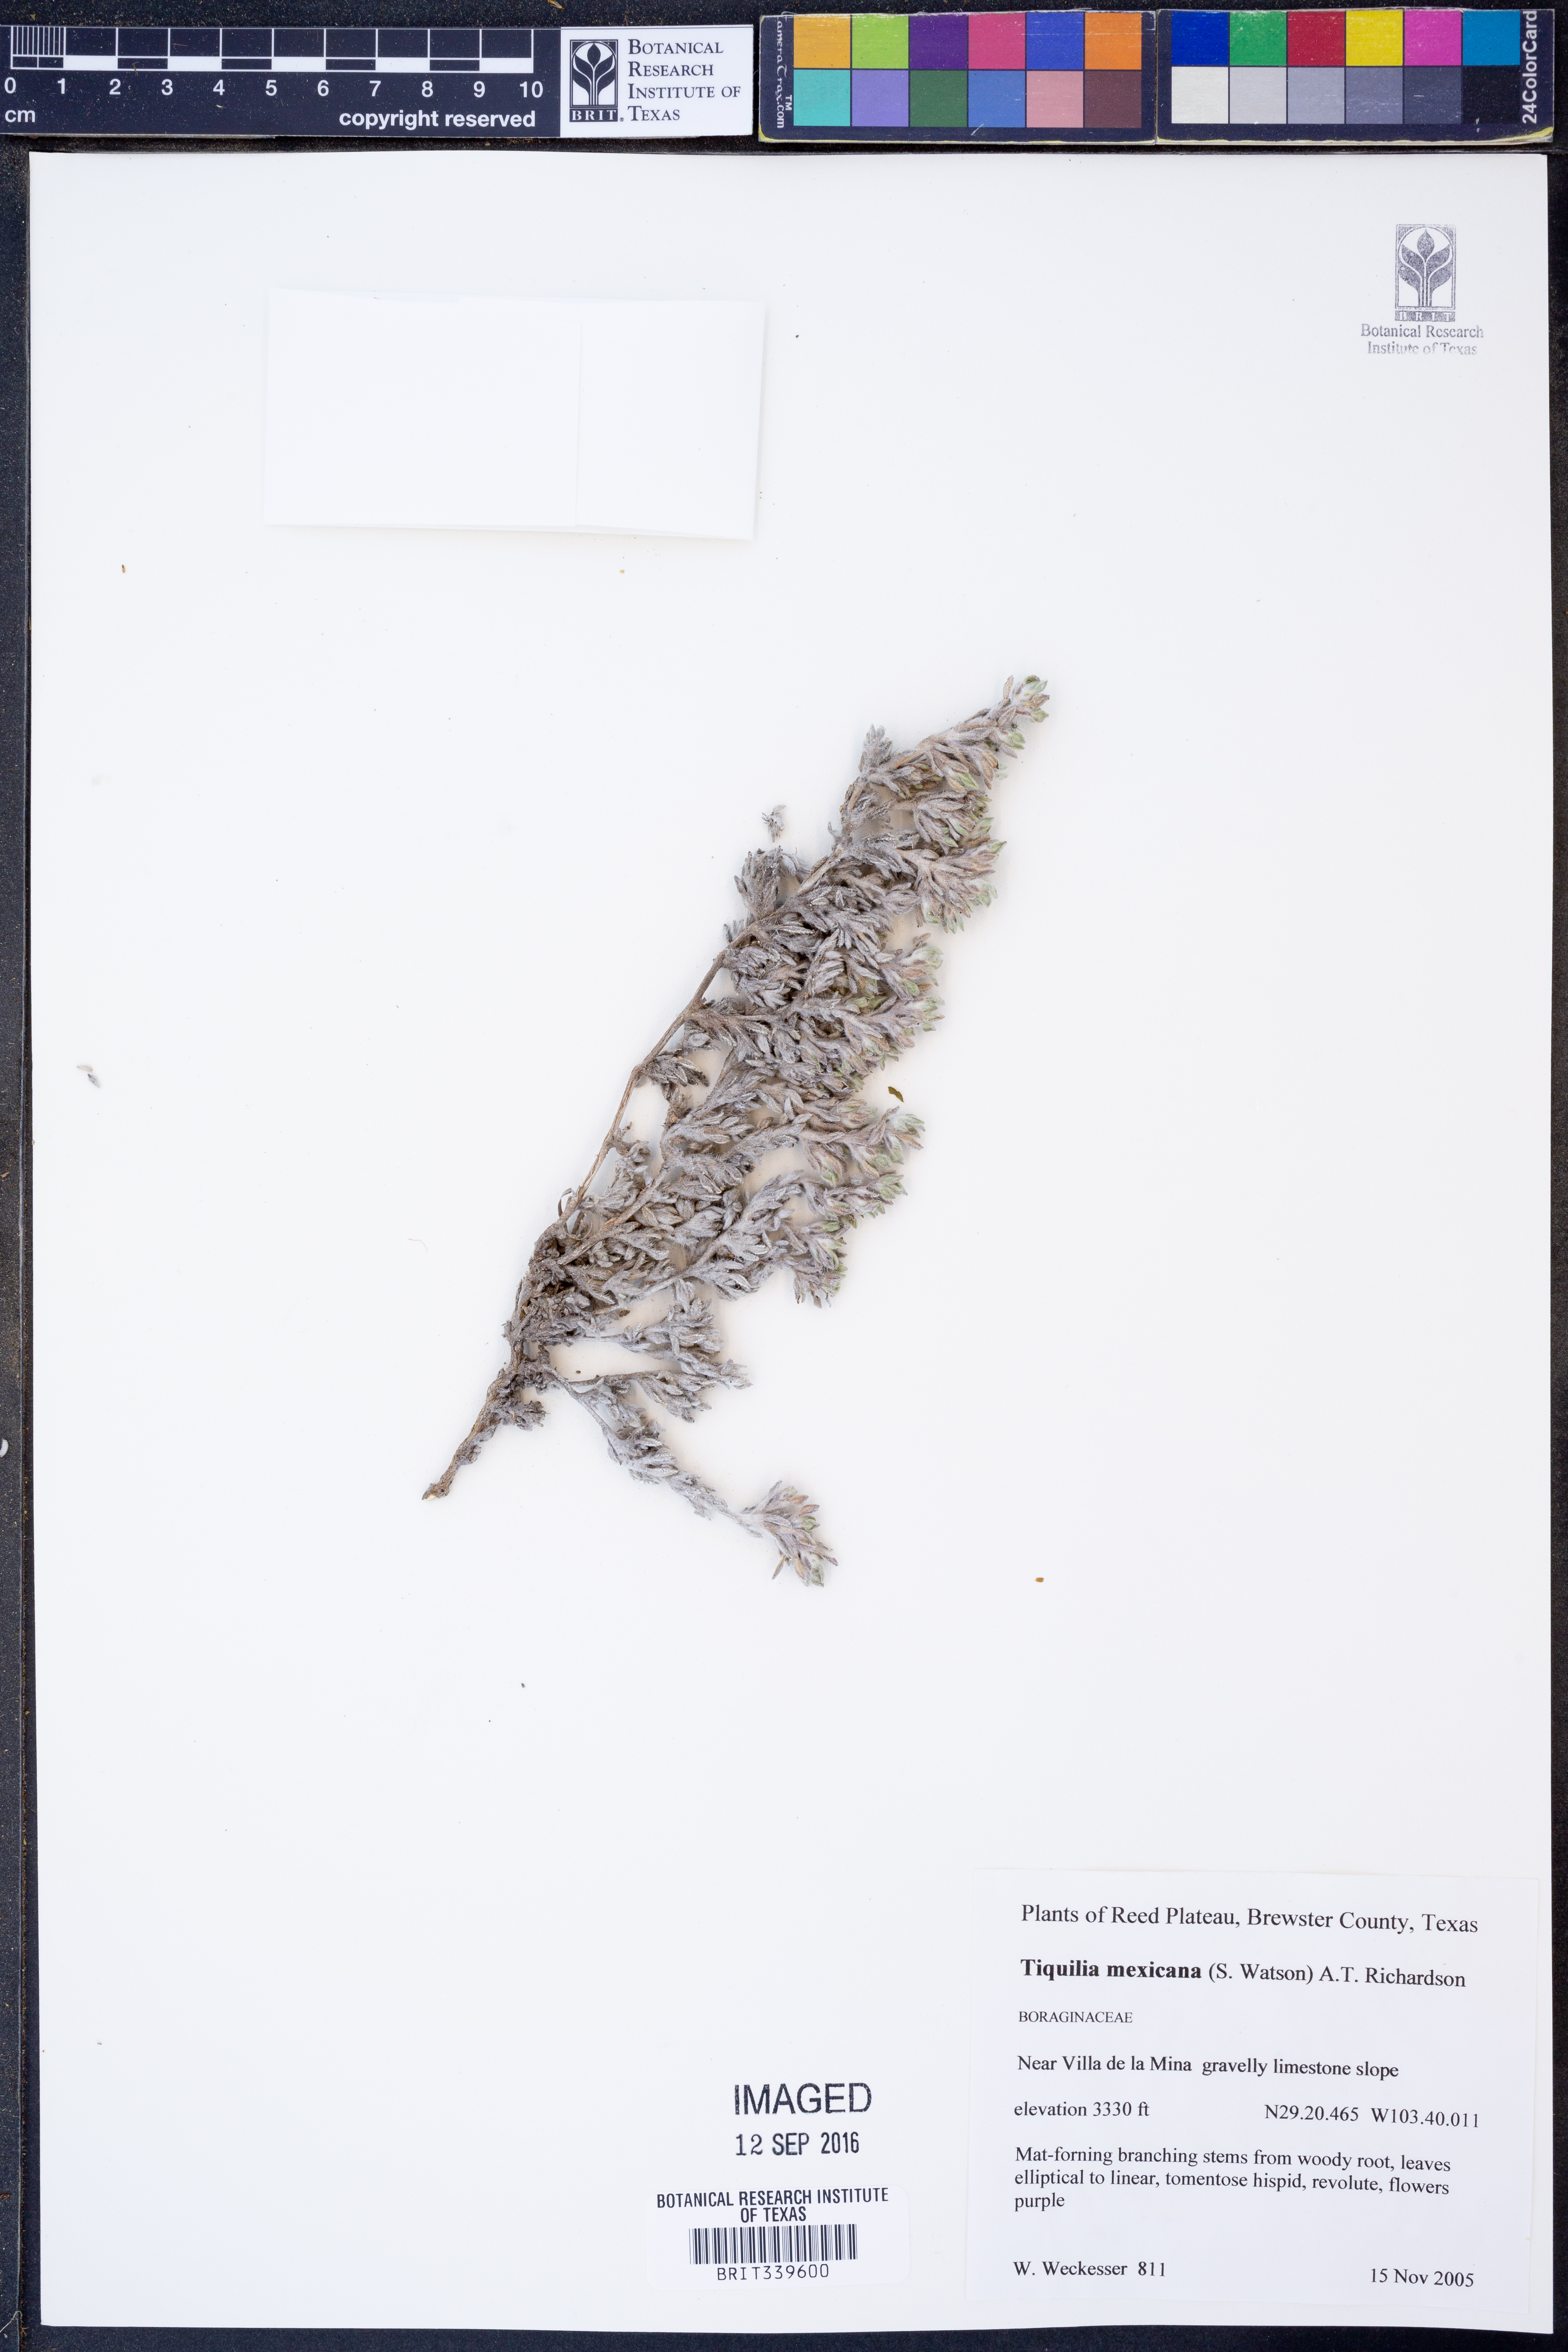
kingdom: Plantae
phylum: Tracheophyta
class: Magnoliopsida
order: Boraginales
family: Ehretiaceae
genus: Tiquilia
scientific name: Tiquilia mexicana
